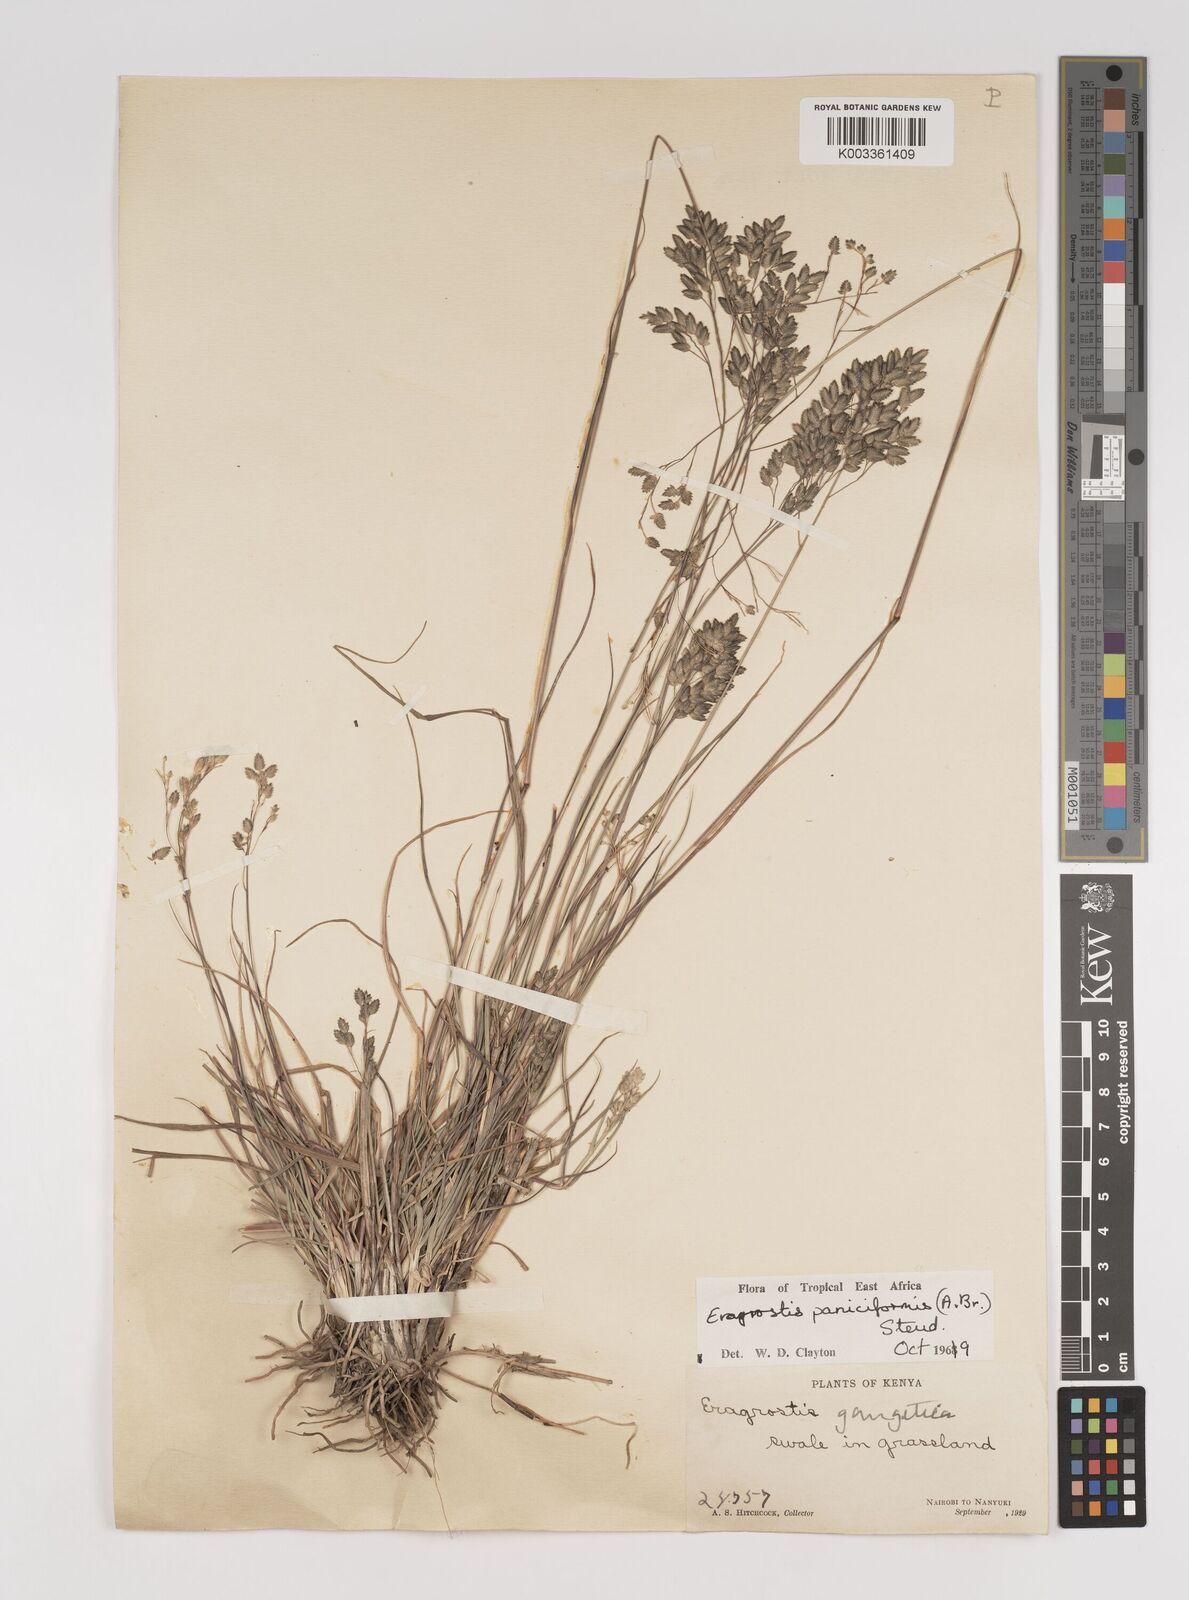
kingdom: Plantae
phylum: Tracheophyta
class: Liliopsida
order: Poales
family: Poaceae
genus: Eragrostis
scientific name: Eragrostis paniciformis
